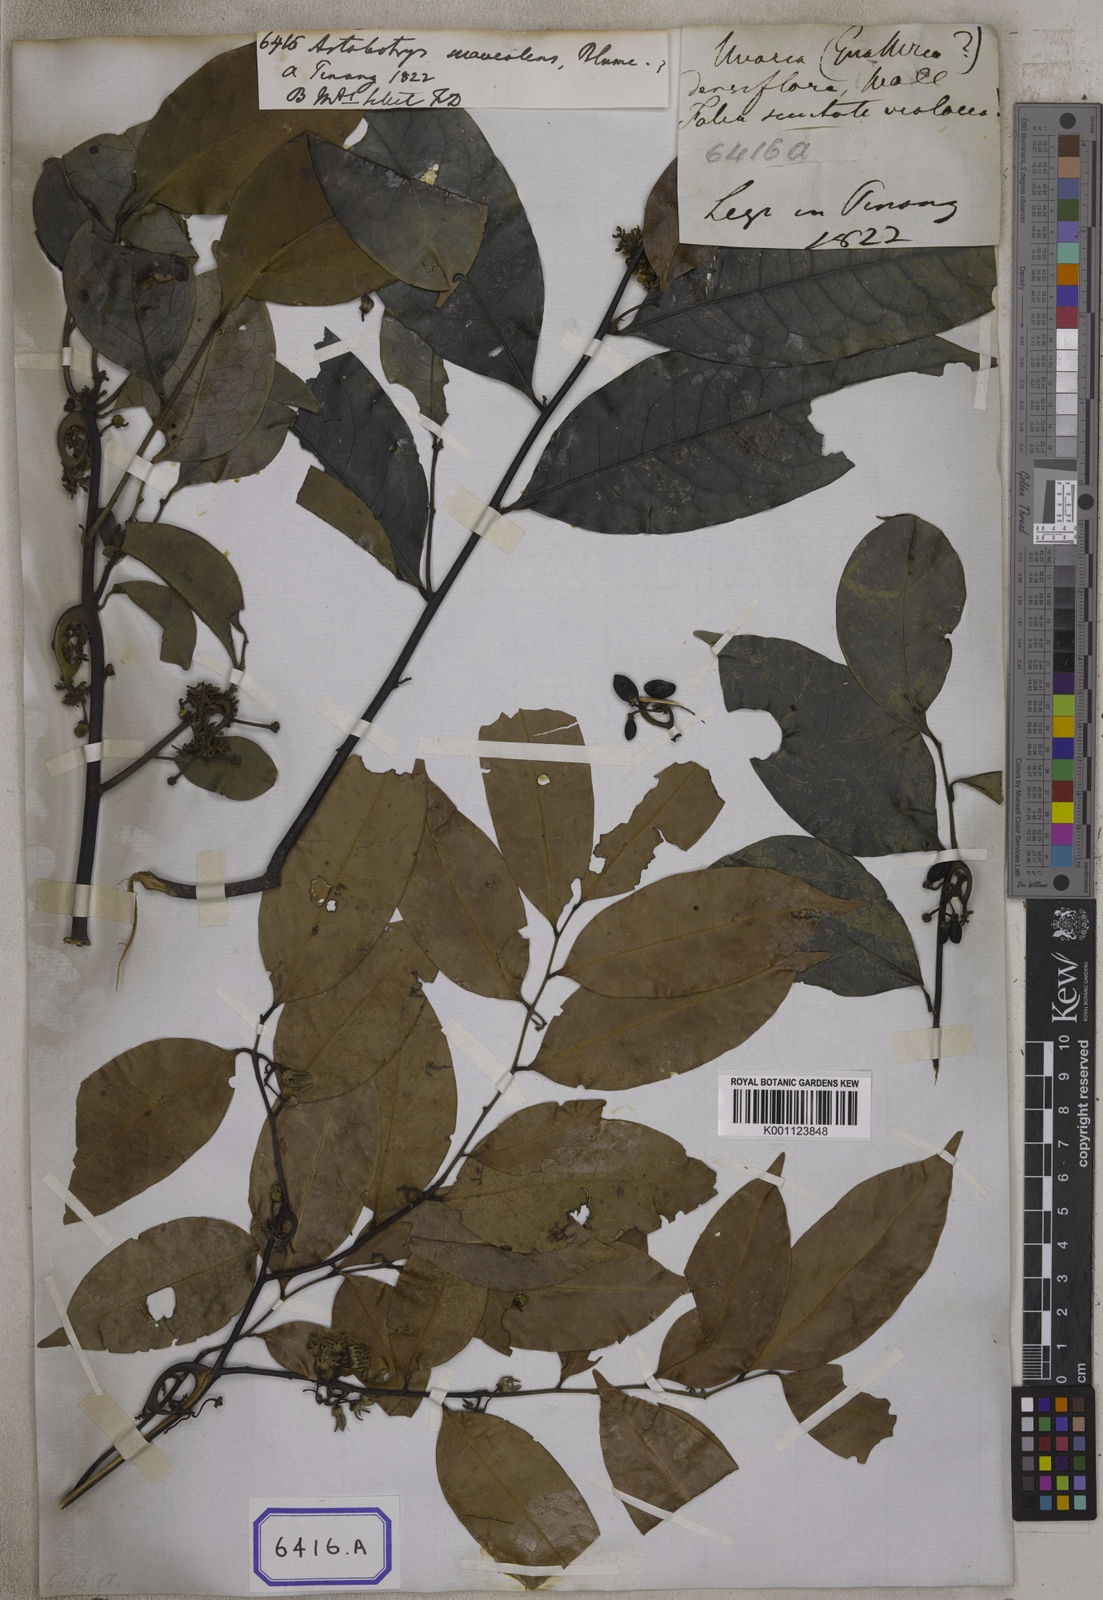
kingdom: Plantae
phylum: Tracheophyta
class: Magnoliopsida
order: Magnoliales
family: Annonaceae
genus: Artabotrys
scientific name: Artabotrys suaveolens
